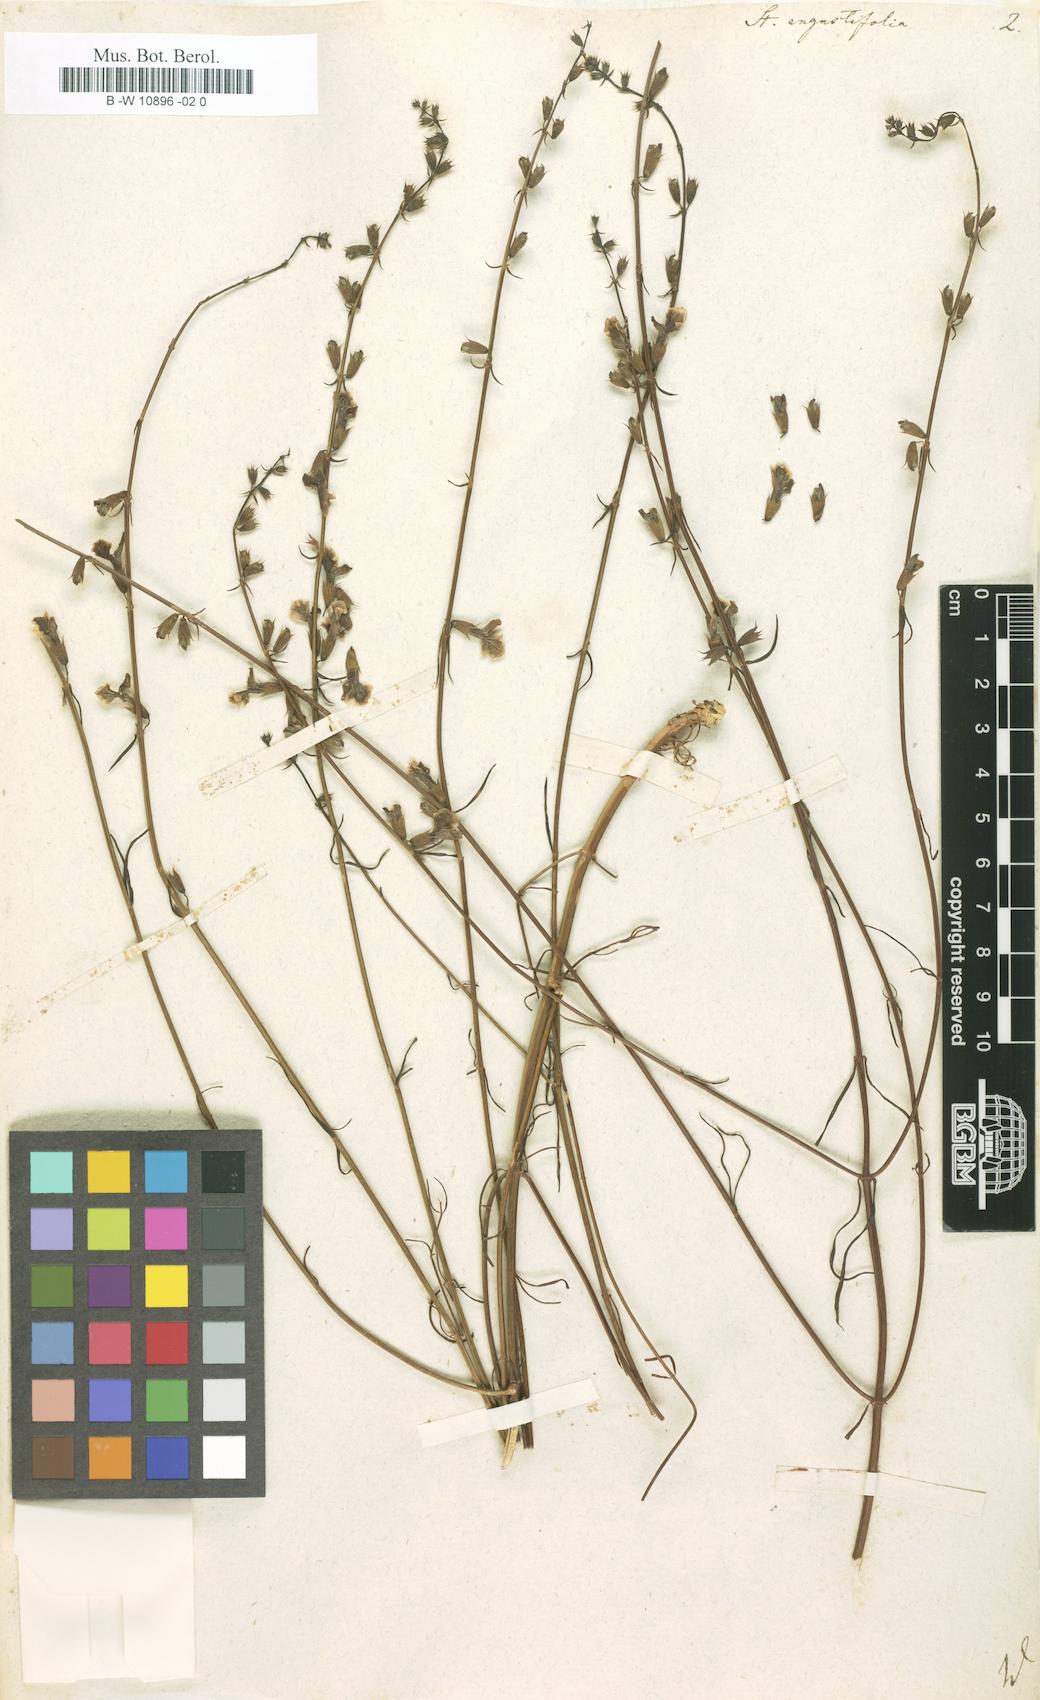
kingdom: Plantae
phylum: Tracheophyta
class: Magnoliopsida
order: Lamiales
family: Lamiaceae
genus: Stachys
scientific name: Stachys angustifolia
